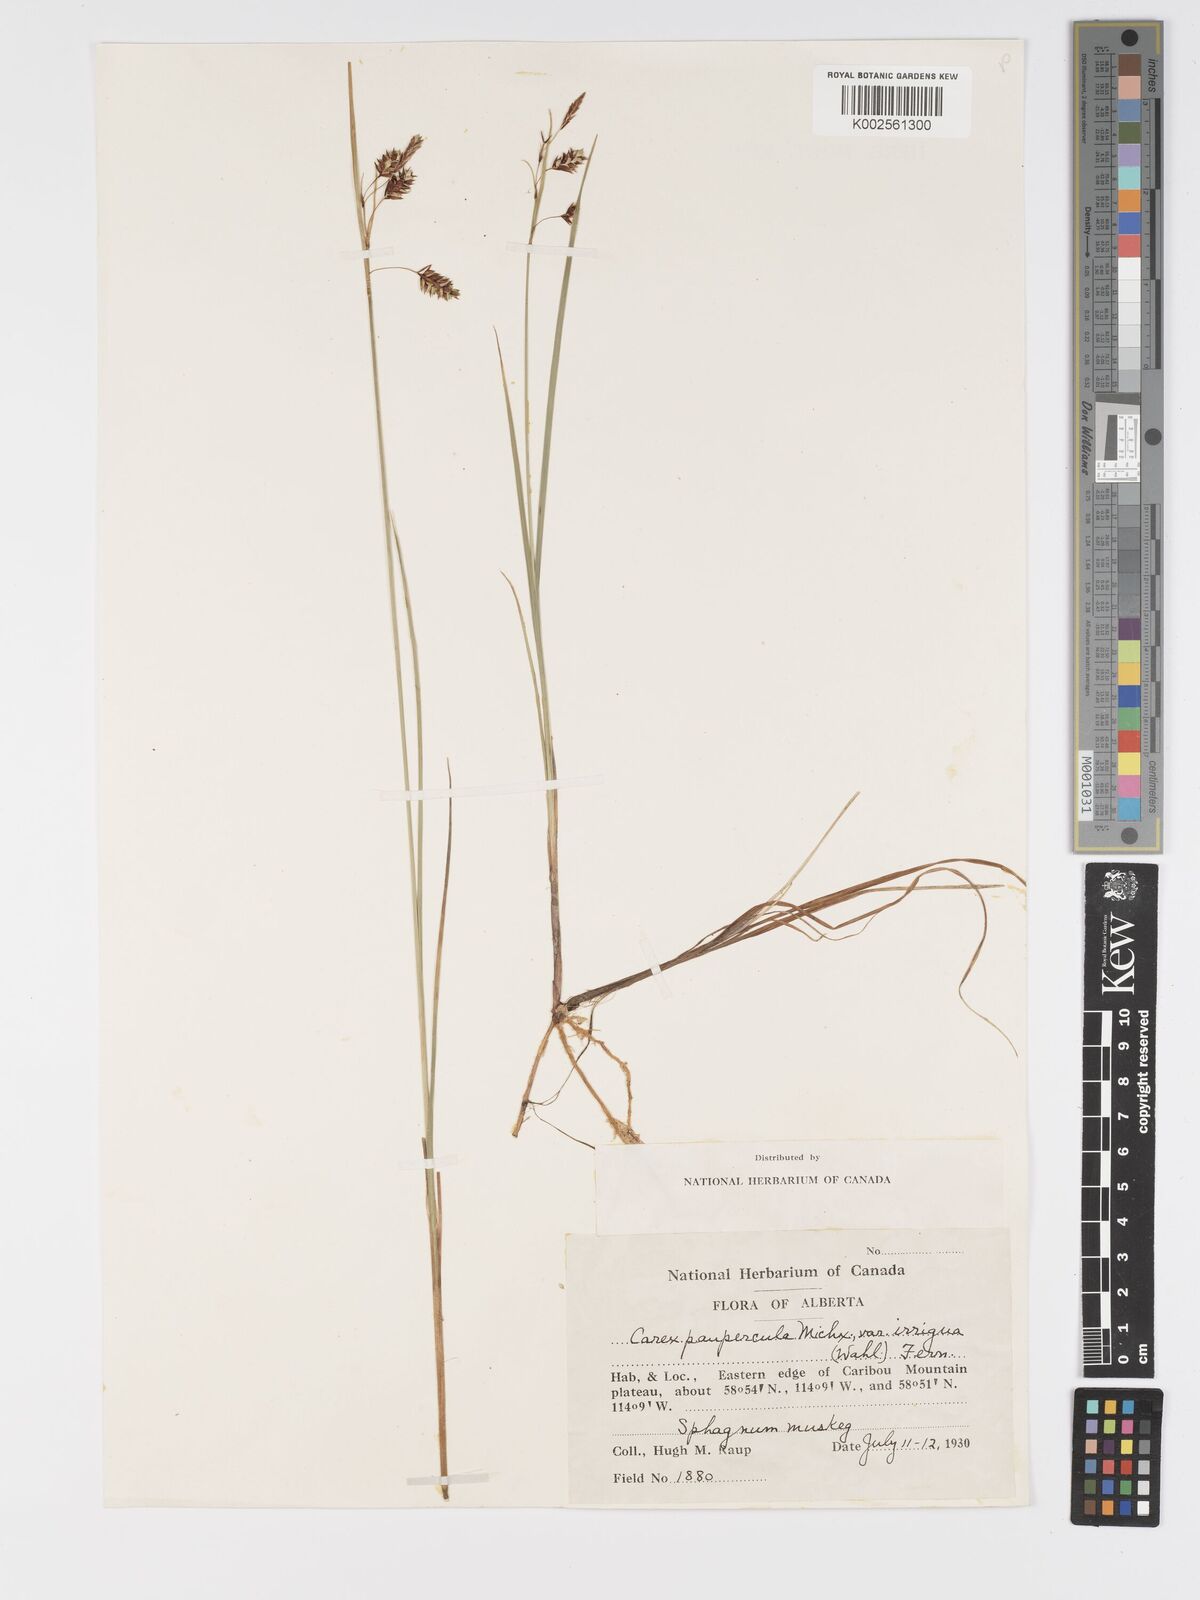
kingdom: Plantae
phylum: Tracheophyta
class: Liliopsida
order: Poales
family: Cyperaceae
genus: Carex
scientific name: Carex magellanica
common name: Bog sedge
